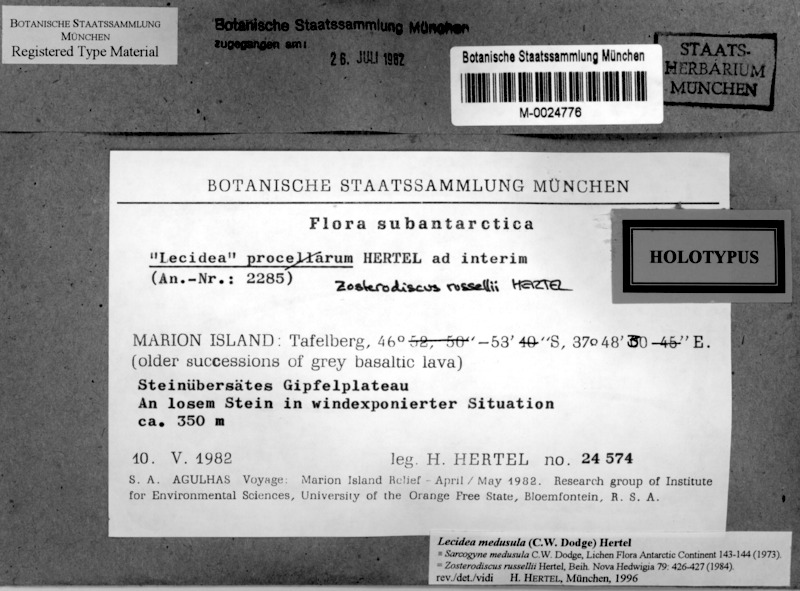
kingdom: Fungi
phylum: Ascomycota
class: Lecanoromycetes
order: Lecideales
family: Lecideaceae
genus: Lecidea
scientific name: Lecidea medusula
